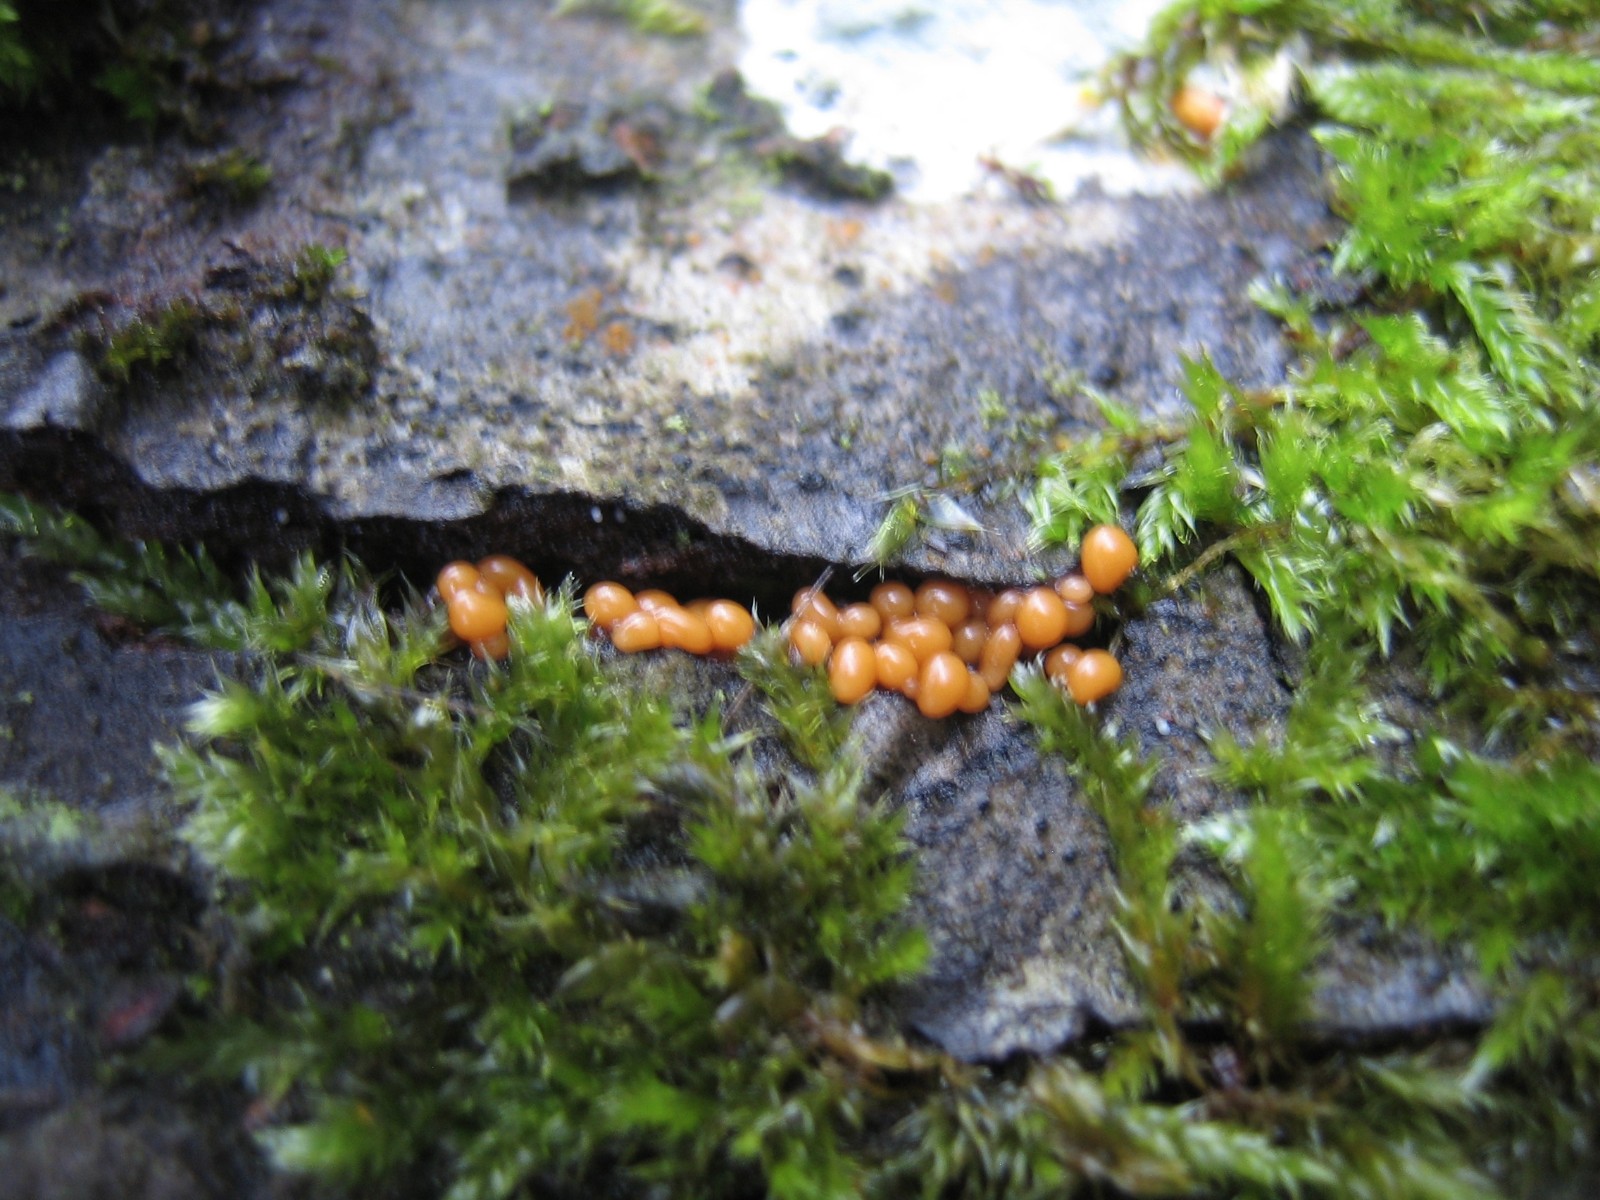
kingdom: Protozoa
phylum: Mycetozoa
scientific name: Mycetozoa
